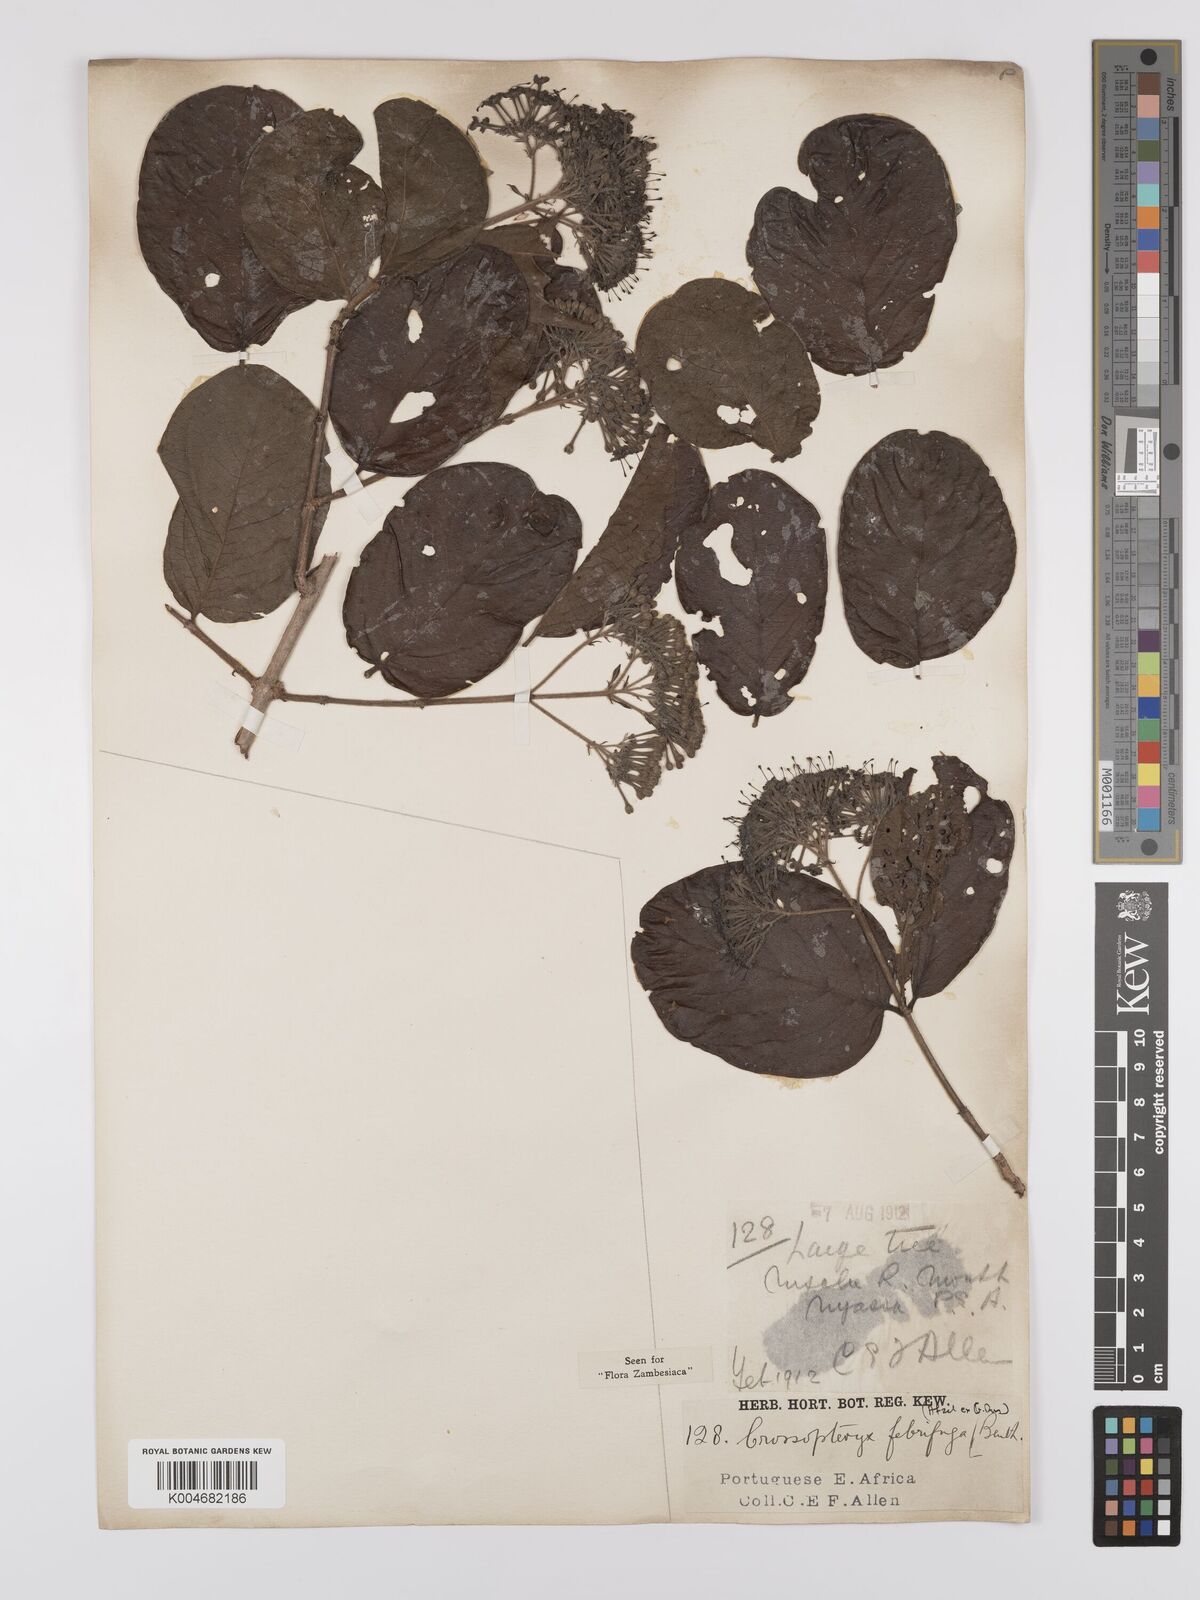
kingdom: Plantae
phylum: Tracheophyta
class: Magnoliopsida
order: Gentianales
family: Rubiaceae
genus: Crossopteryx
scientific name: Crossopteryx febrifuga
